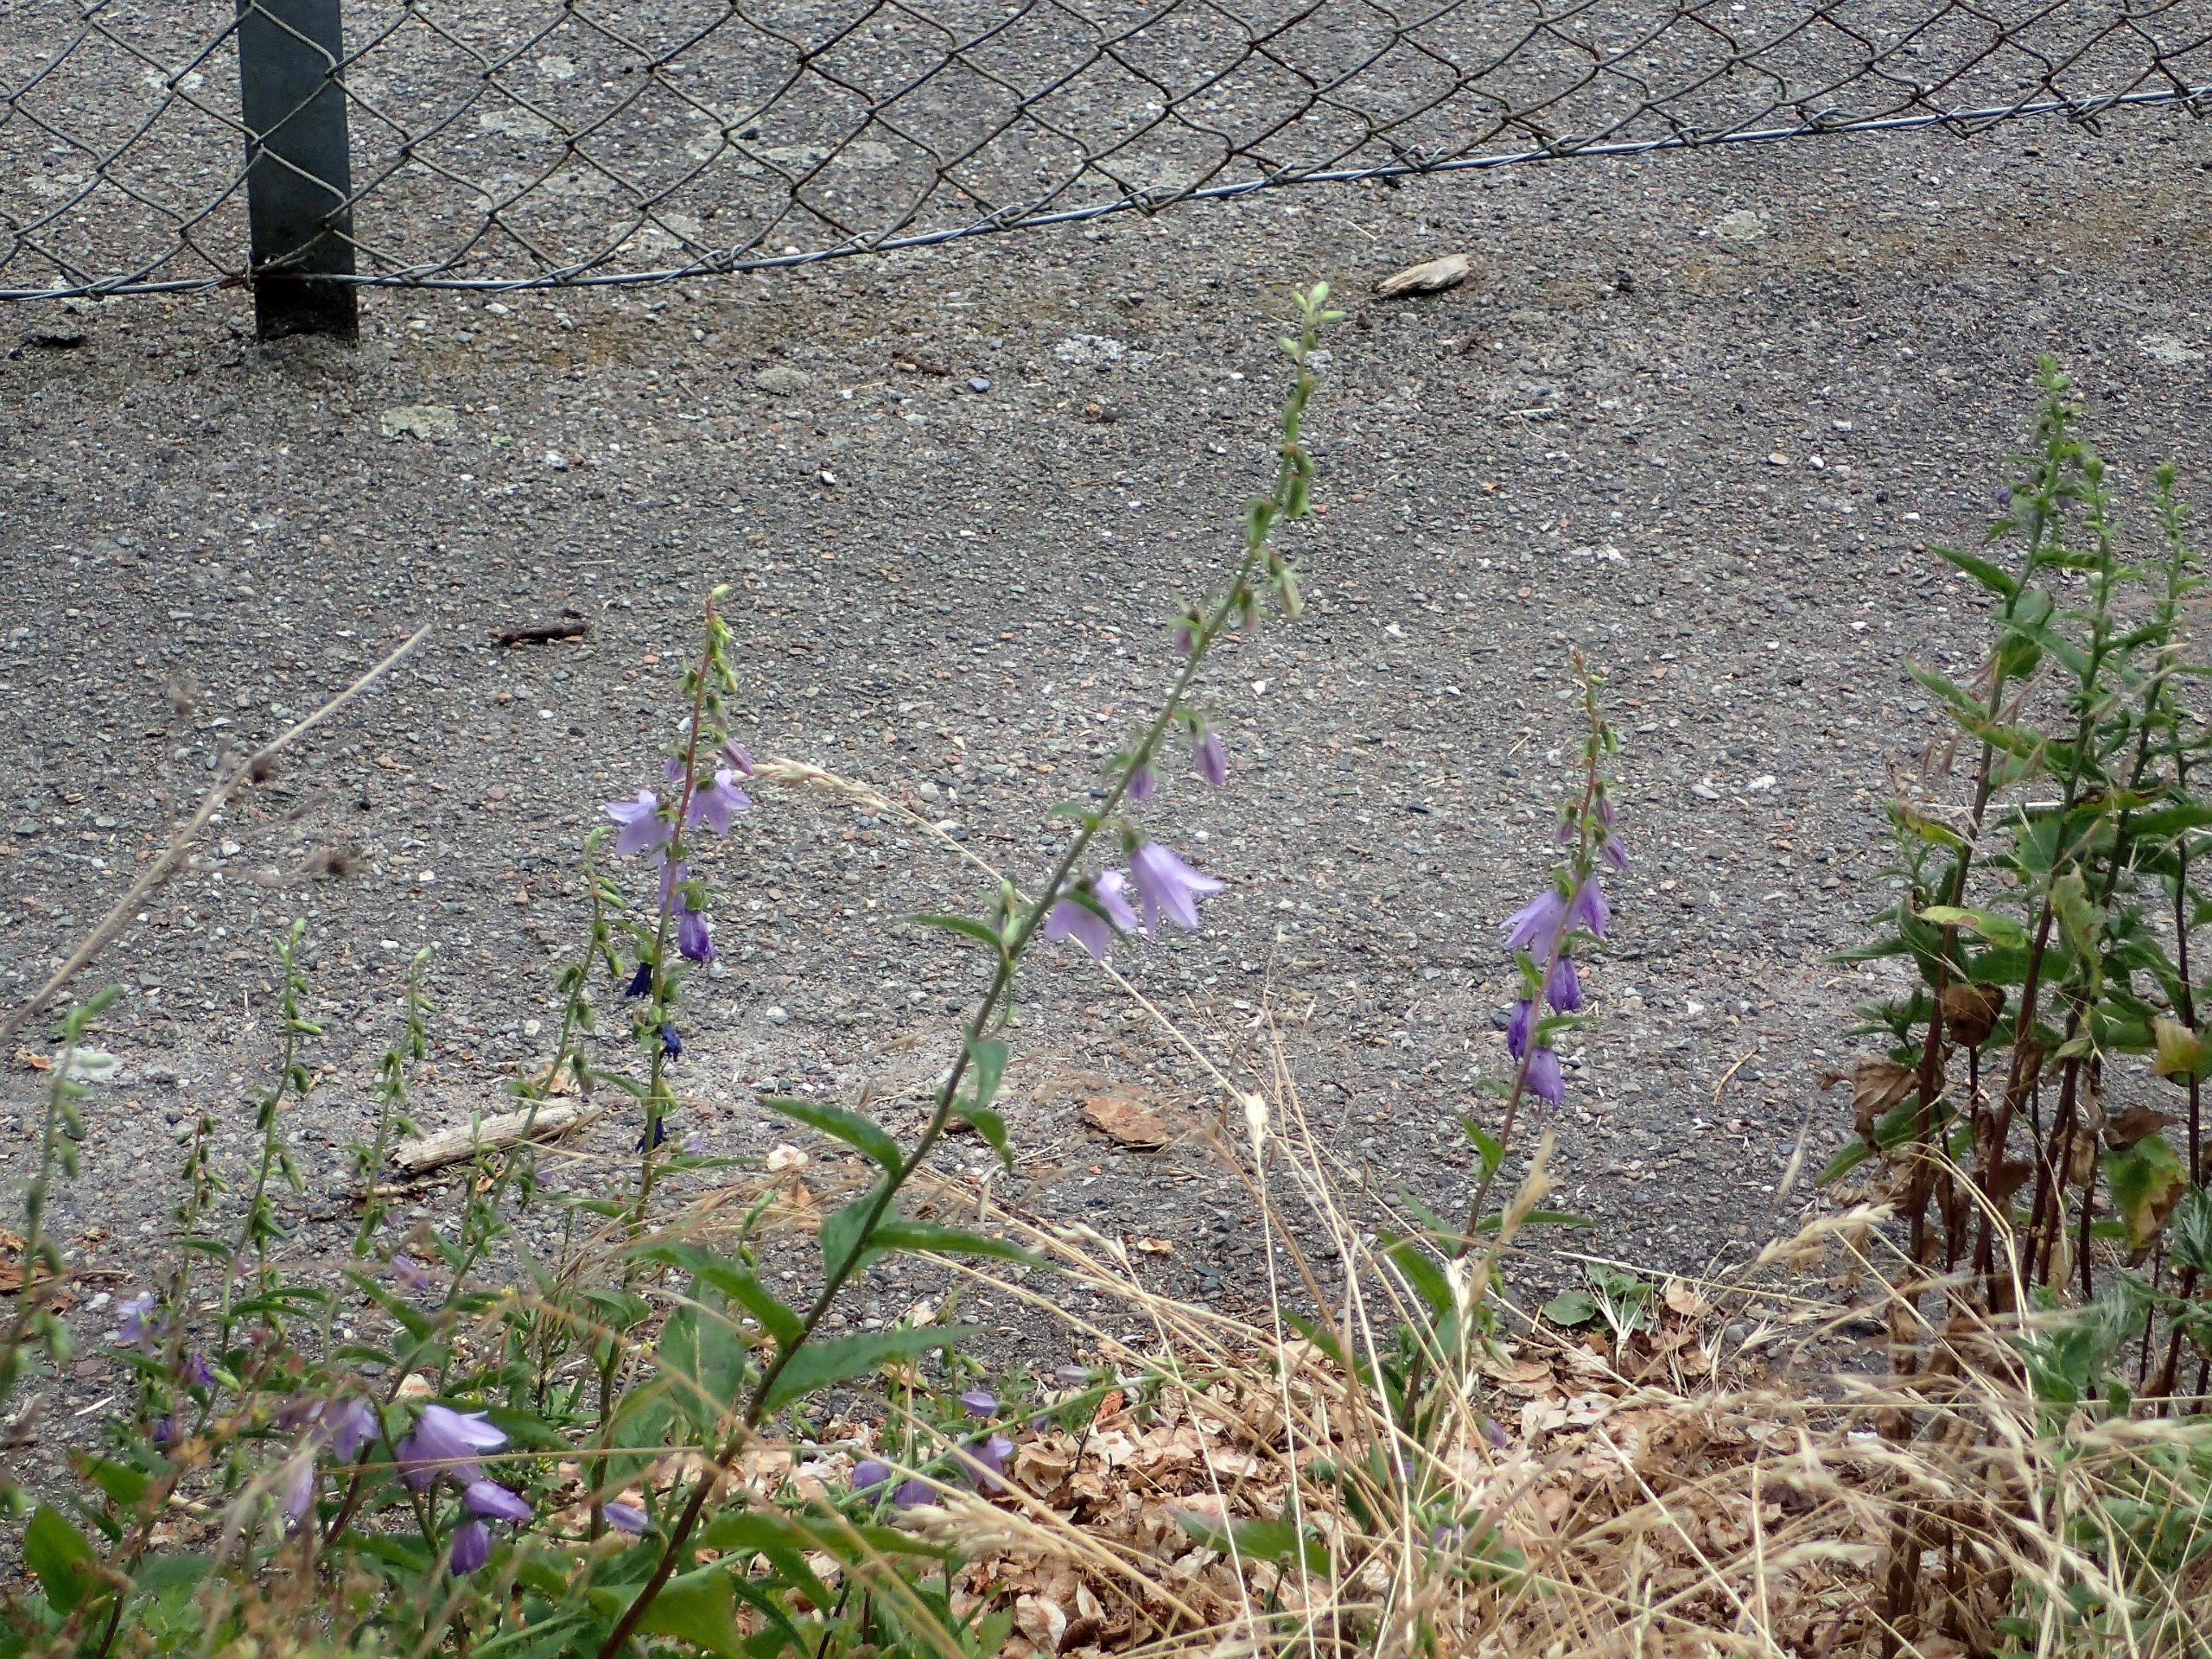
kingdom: Plantae
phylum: Tracheophyta
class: Magnoliopsida
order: Asterales
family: Campanulaceae
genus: Campanula
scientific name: Campanula rapunculoides
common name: Ensidig klokke
